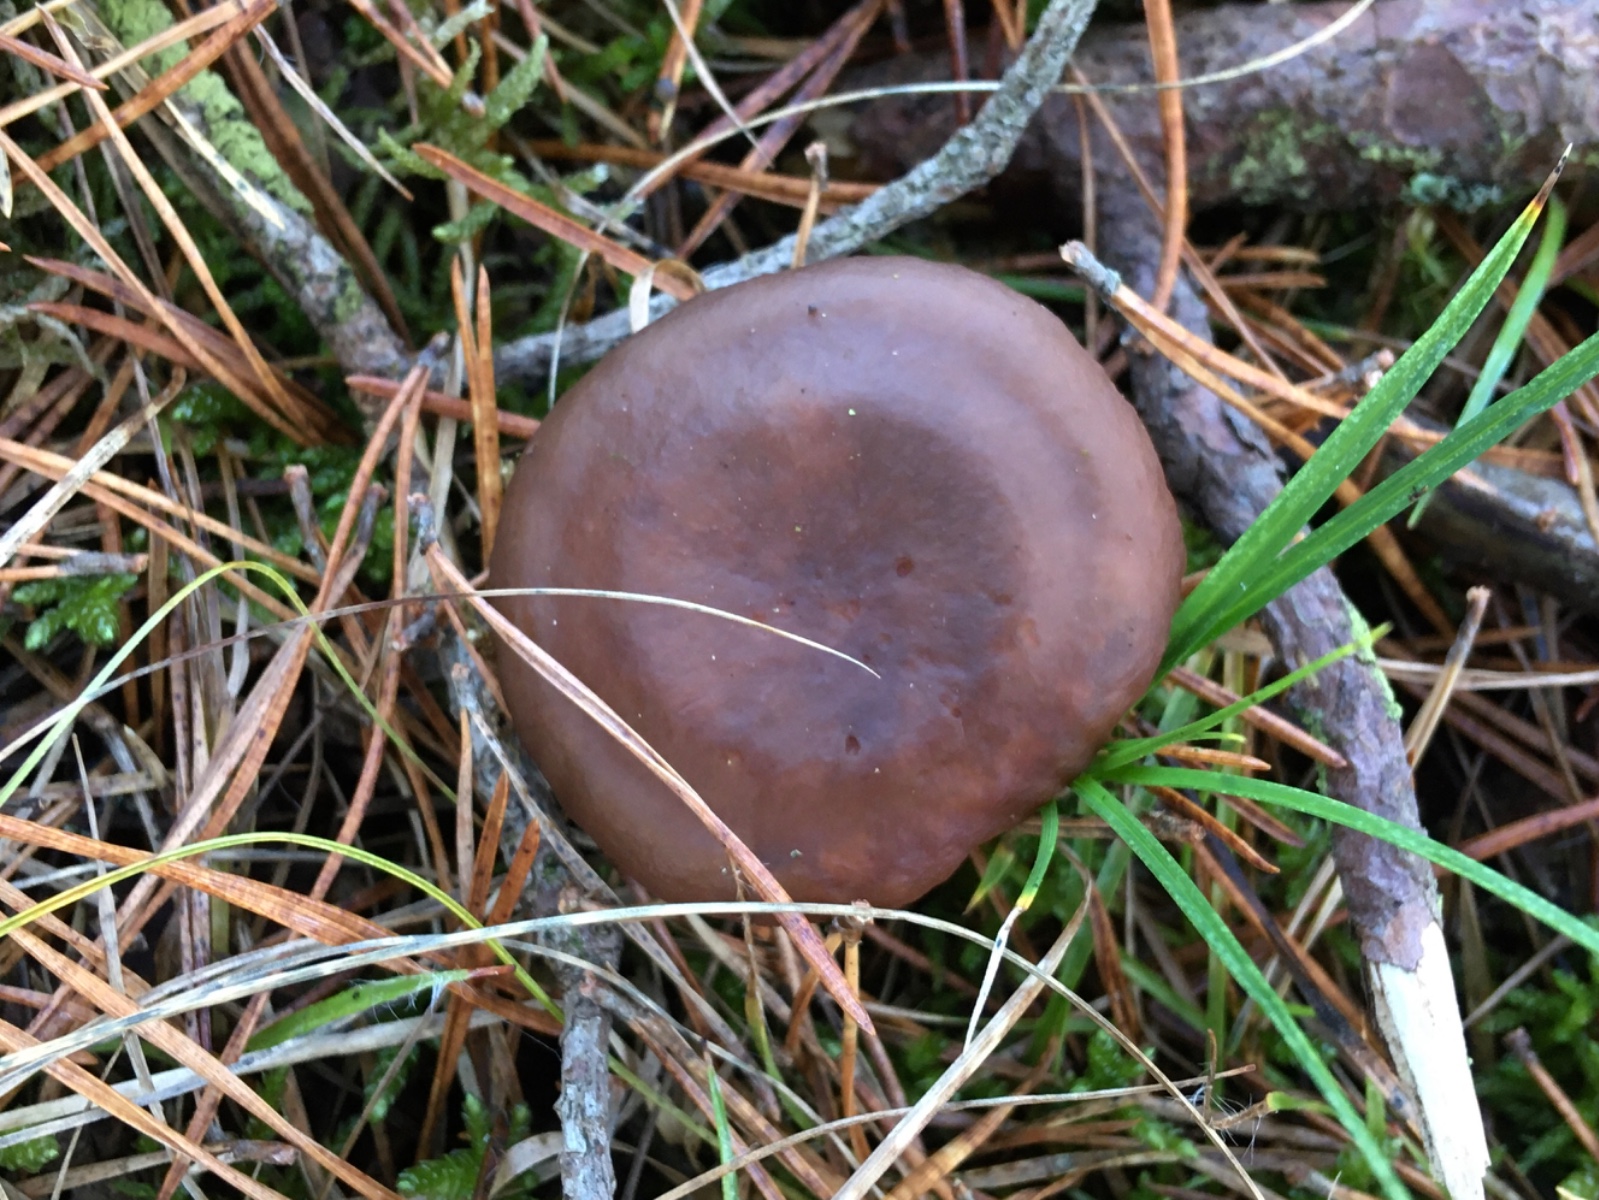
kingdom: Fungi
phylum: Basidiomycota
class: Agaricomycetes
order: Russulales
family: Russulaceae
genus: Lactarius
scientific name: Lactarius hepaticus
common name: leverbrun mælkehat
